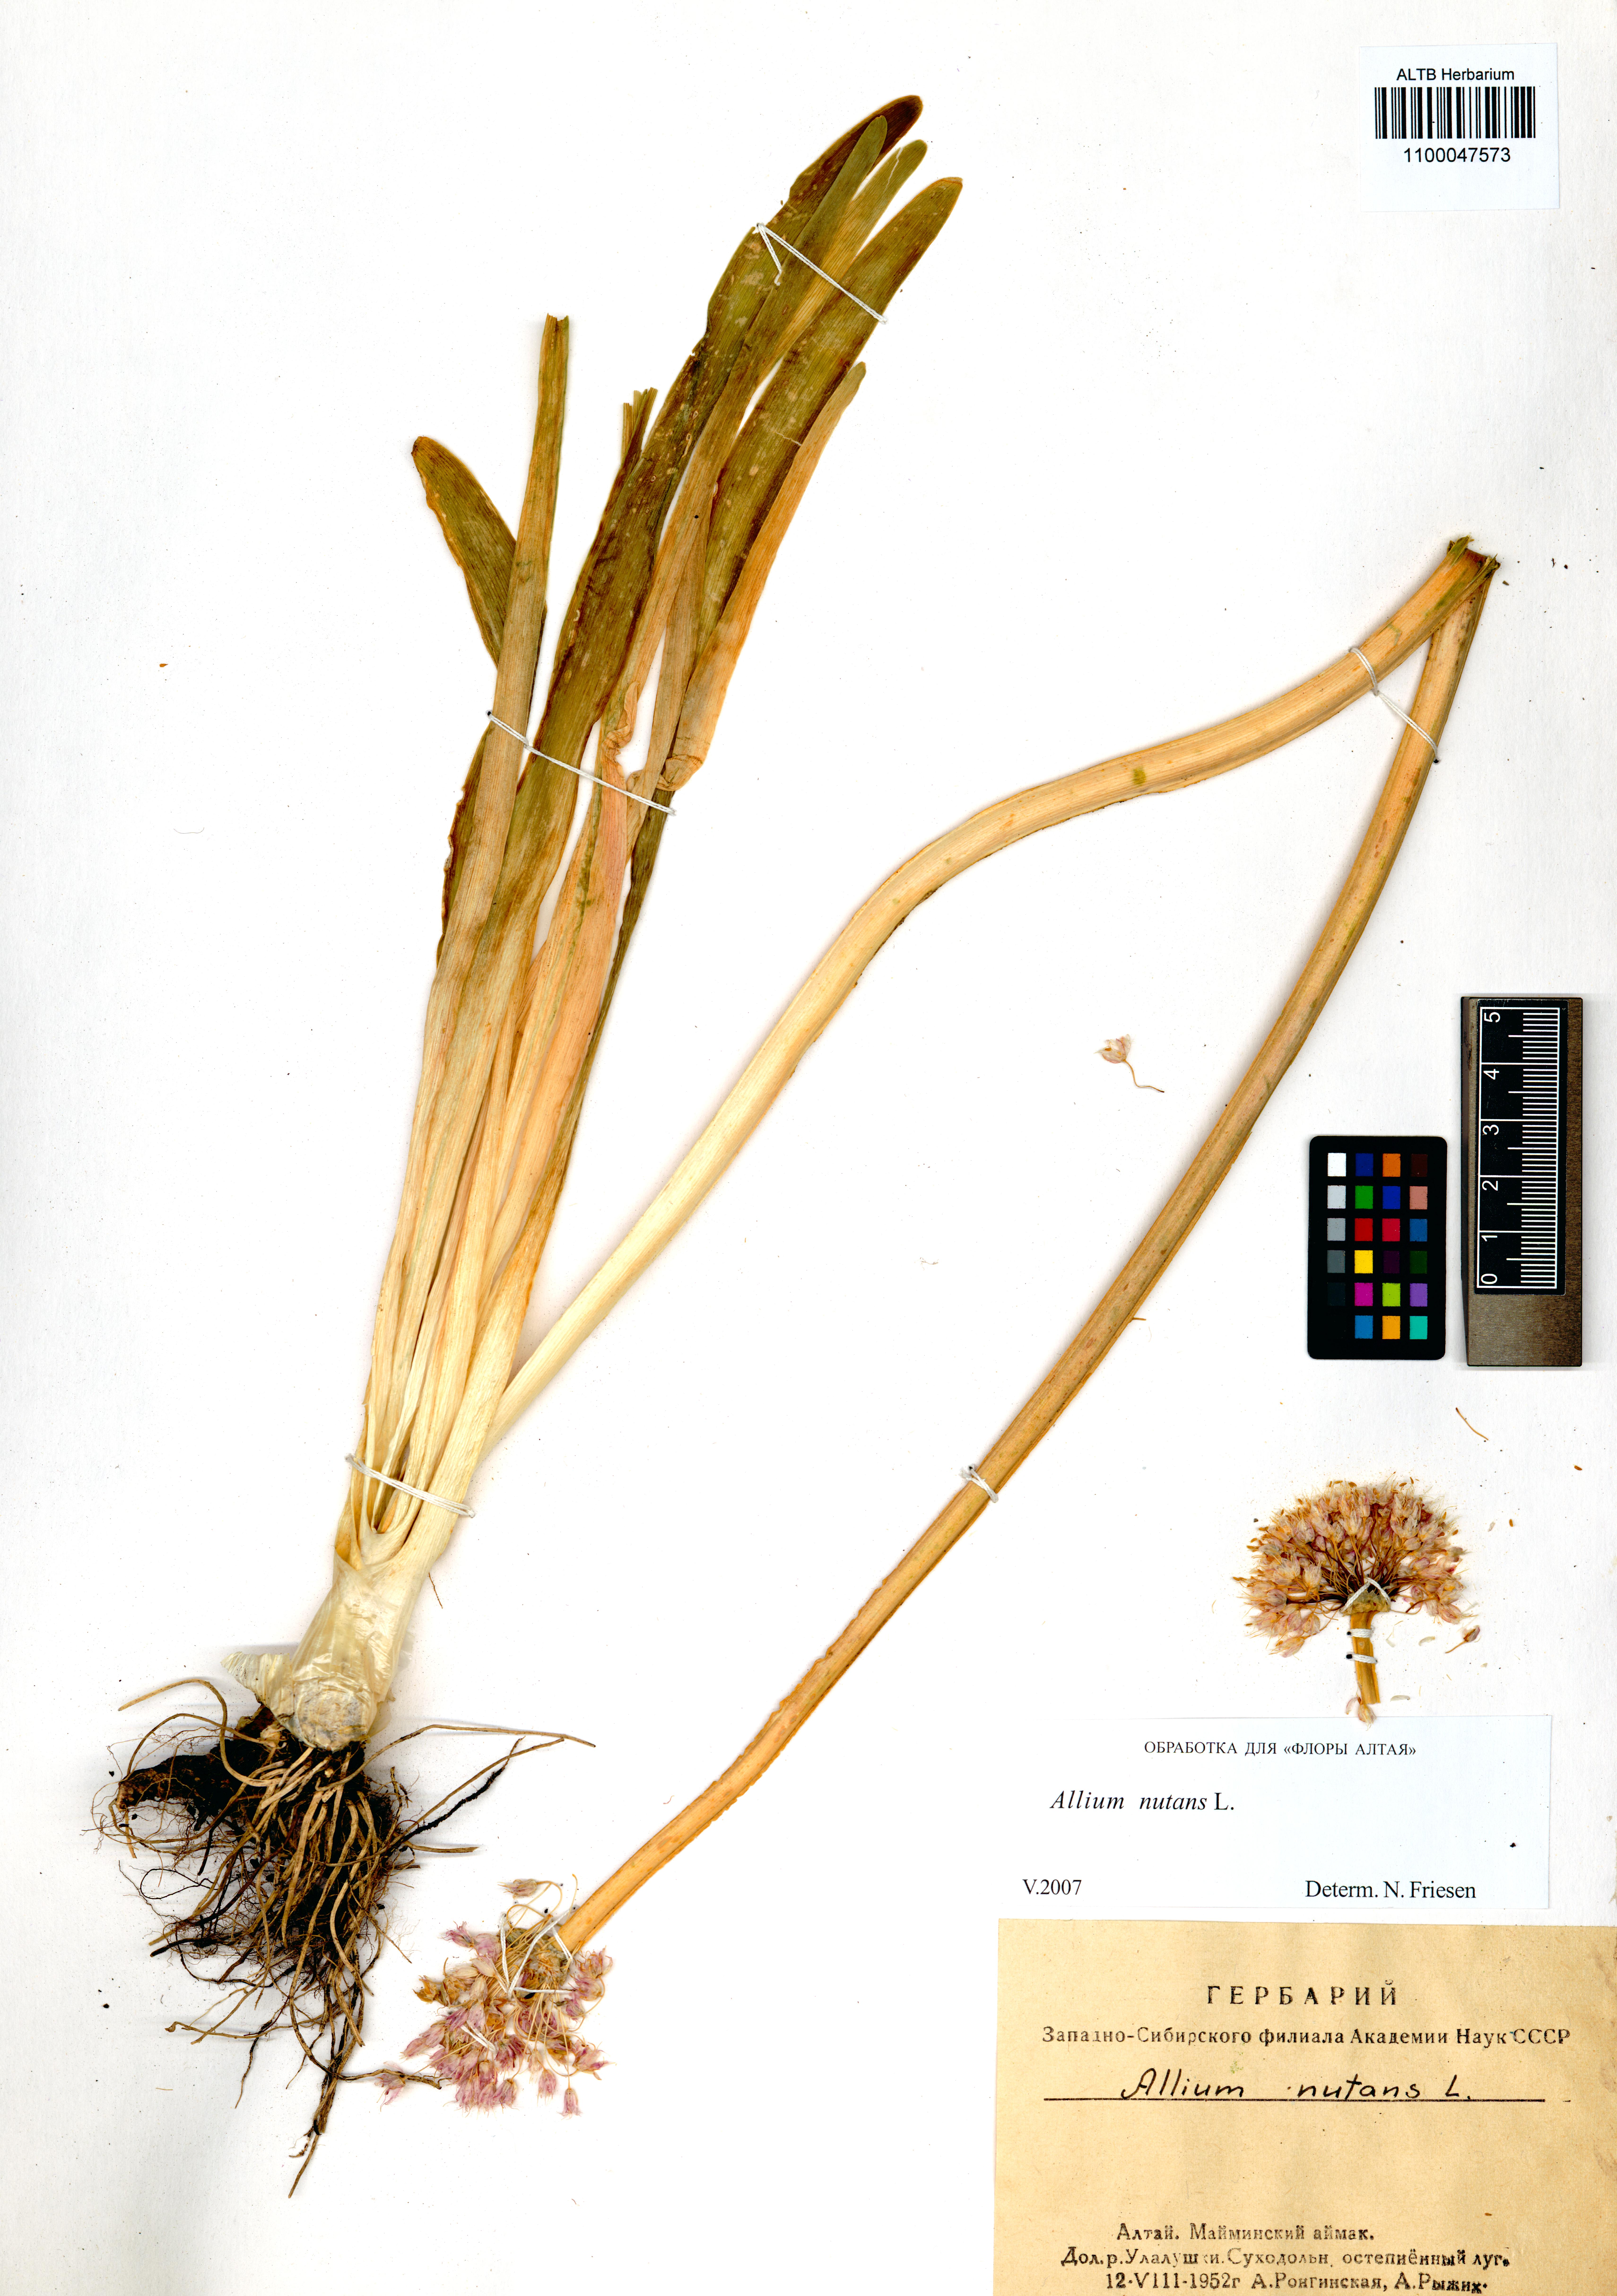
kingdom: Plantae
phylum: Tracheophyta
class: Liliopsida
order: Asparagales
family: Amaryllidaceae
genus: Allium
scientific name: Allium nutans
